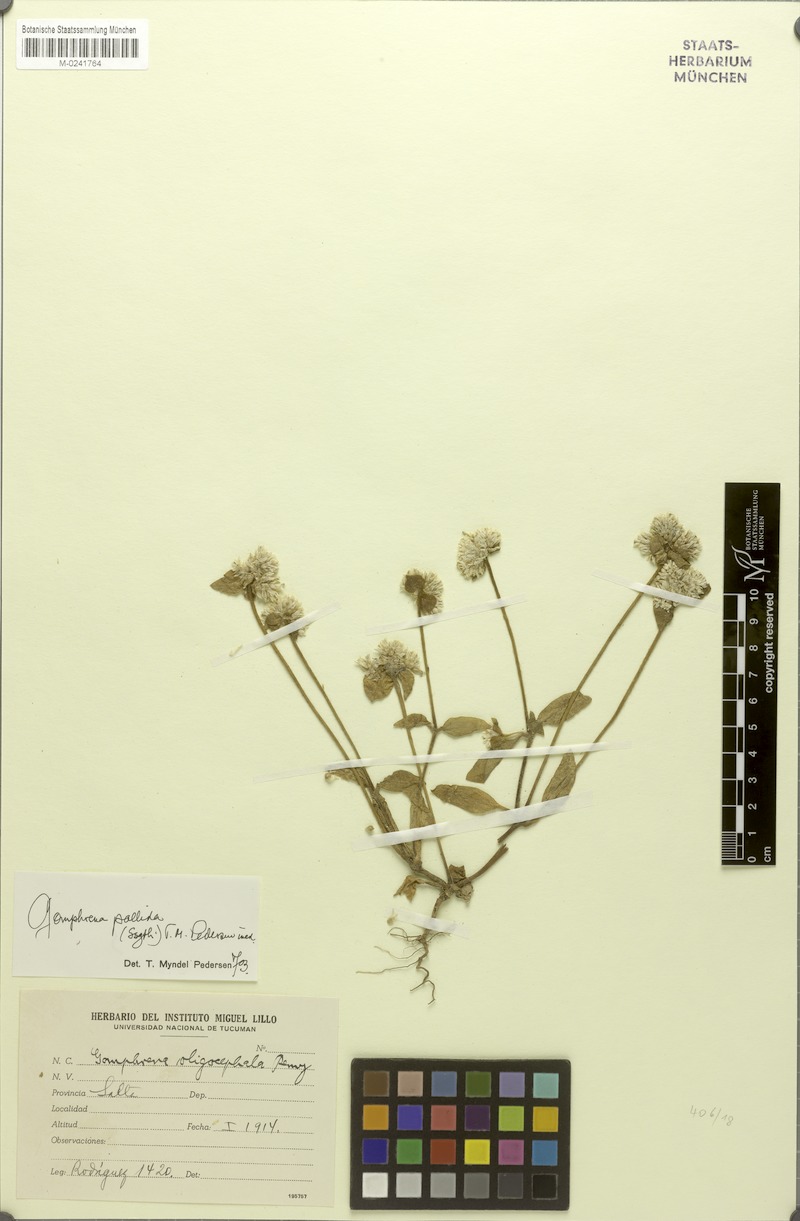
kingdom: Plantae
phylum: Tracheophyta
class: Magnoliopsida
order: Caryophyllales
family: Amaranthaceae
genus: Gomphrena
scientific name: Gomphrena pallida
